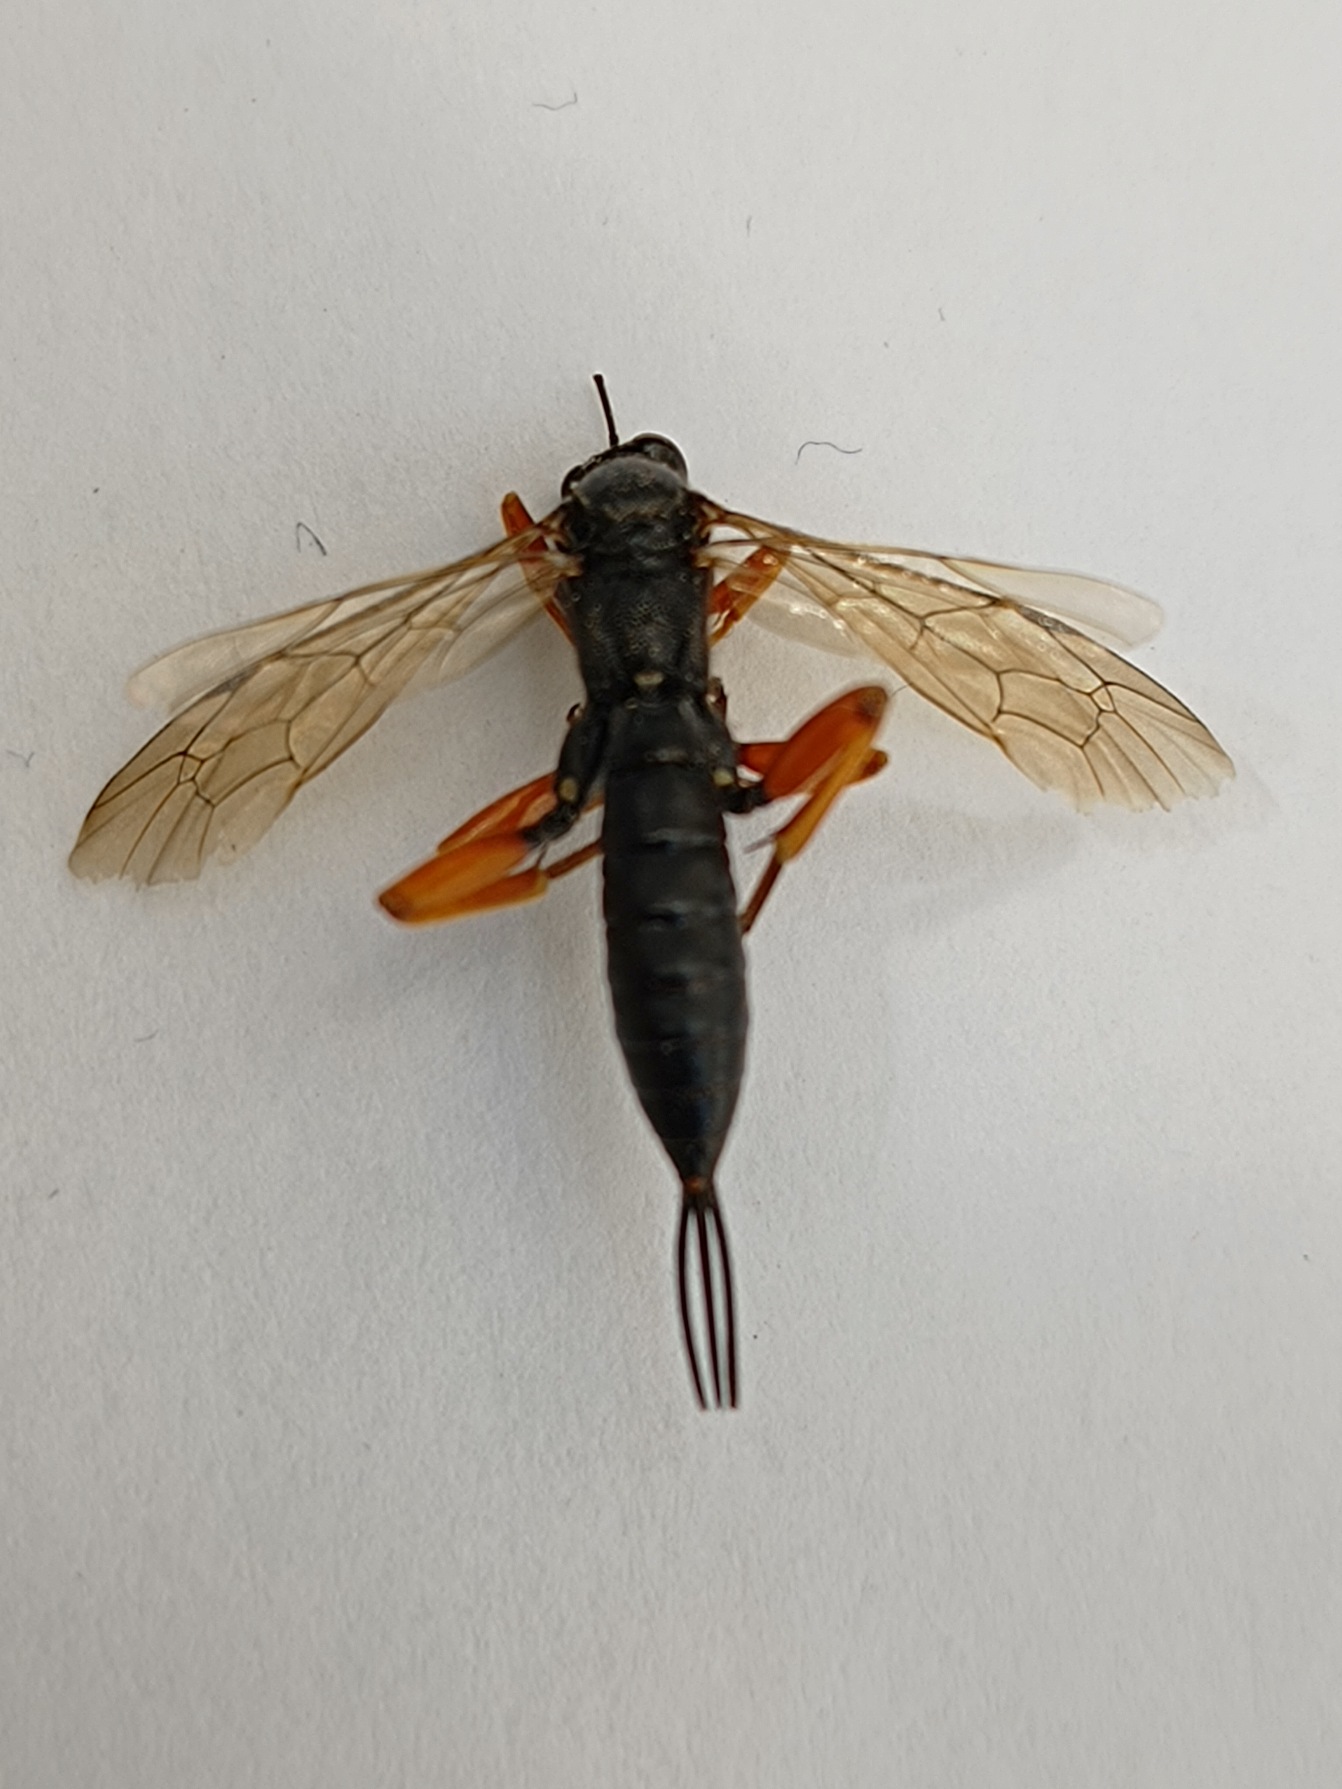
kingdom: Animalia
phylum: Arthropoda
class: Insecta
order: Hymenoptera
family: Ichneumonidae
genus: Pimpla
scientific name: Pimpla rufipes
